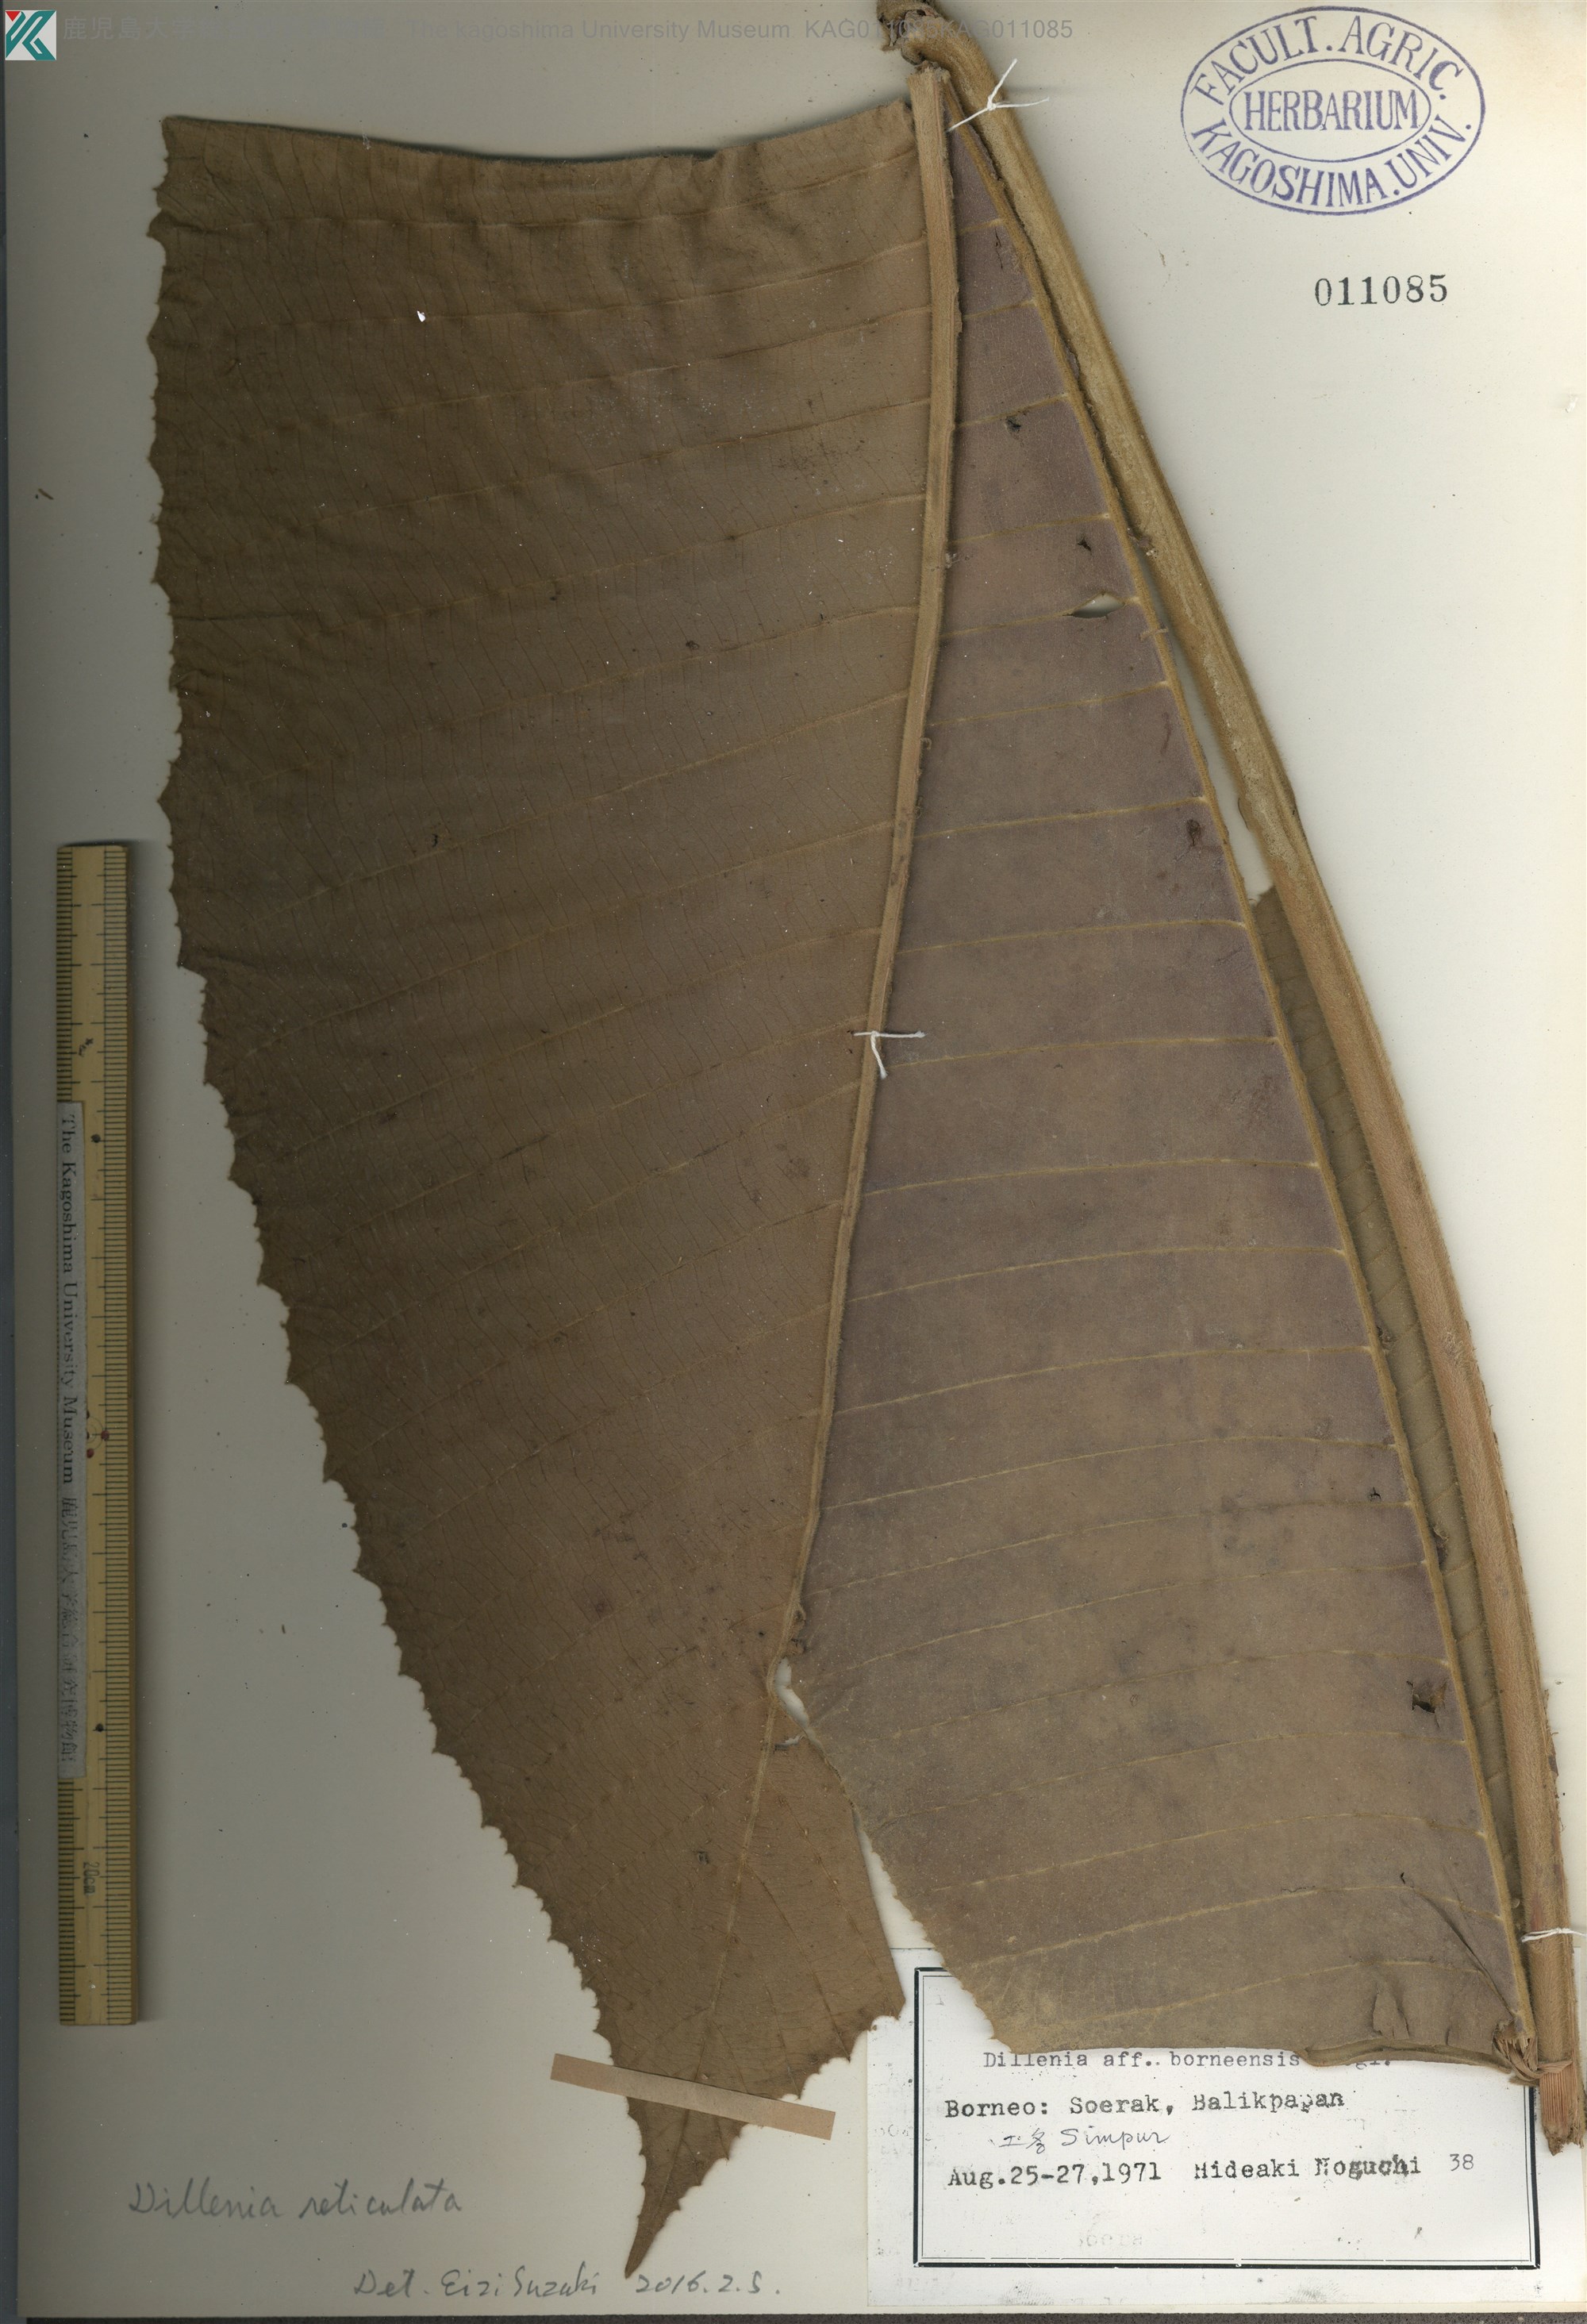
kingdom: Plantae
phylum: Tracheophyta
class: Magnoliopsida
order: Dilleniales
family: Dilleniaceae
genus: Dillenia
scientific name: Dillenia reticulata
